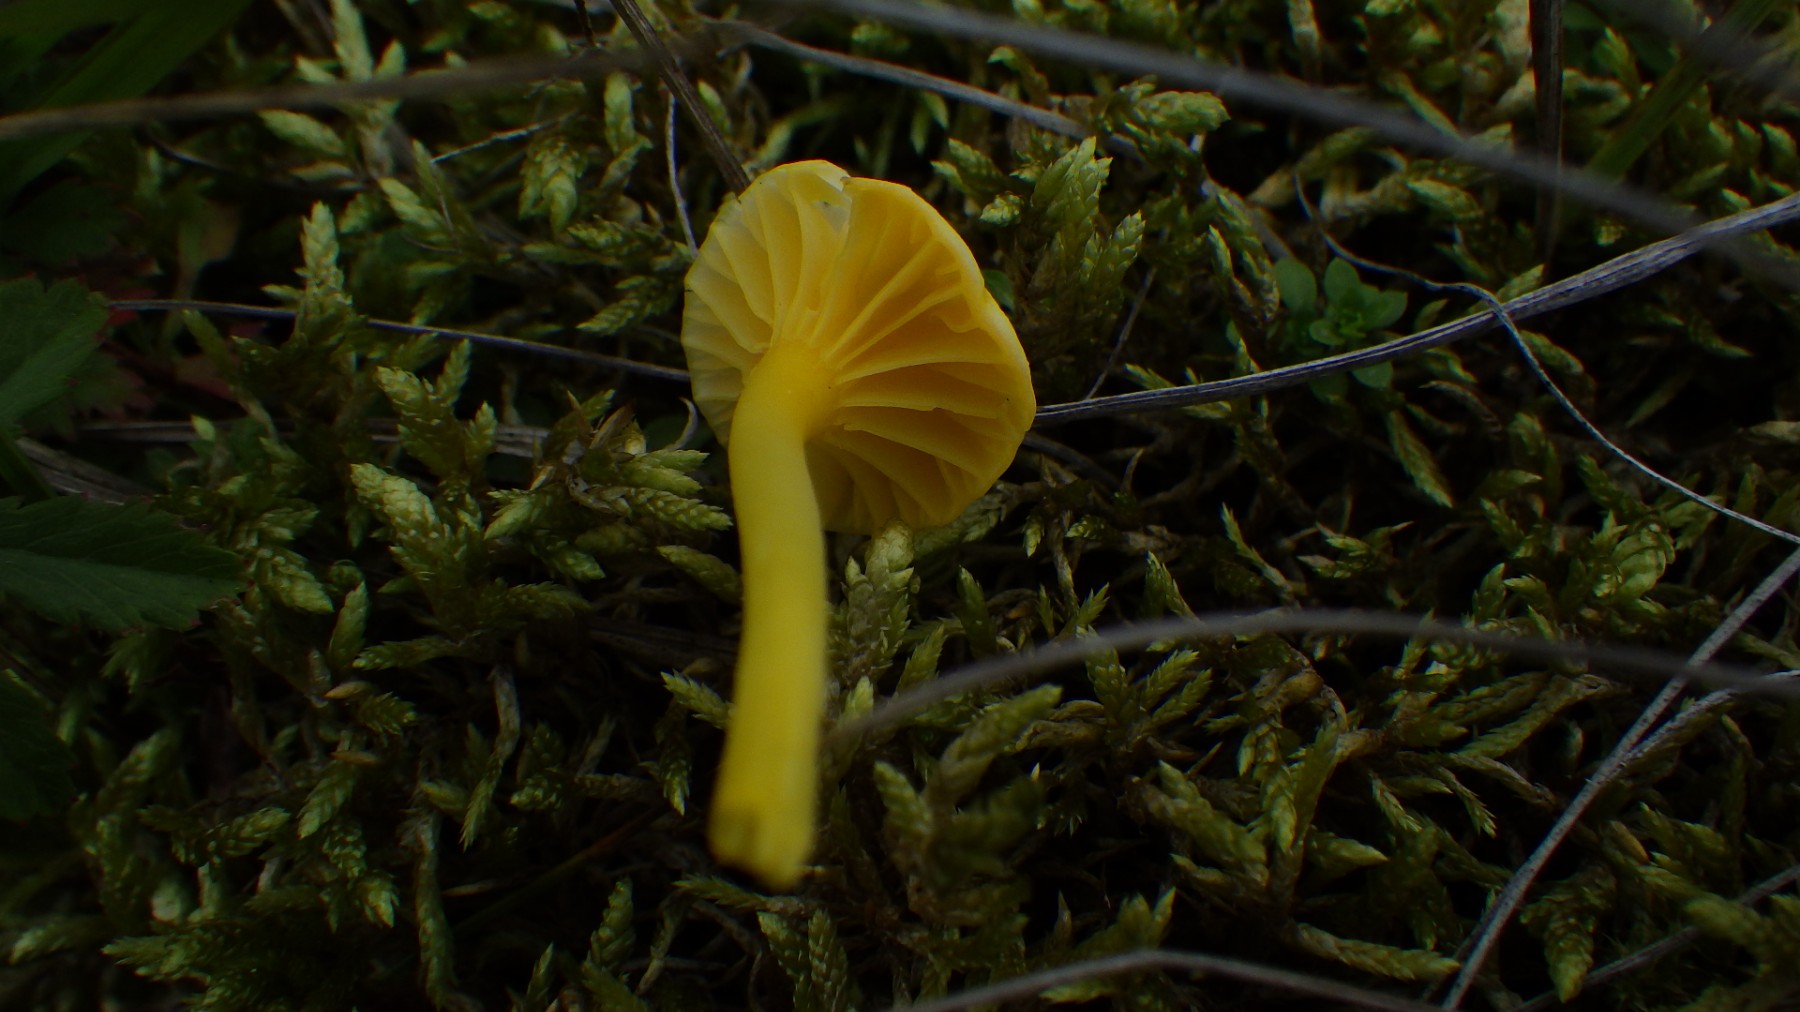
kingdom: Fungi
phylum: Basidiomycota
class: Agaricomycetes
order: Agaricales
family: Hygrophoraceae
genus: Gloioxanthomyces
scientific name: Gloioxanthomyces vitellinus
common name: kromgul vokshat
